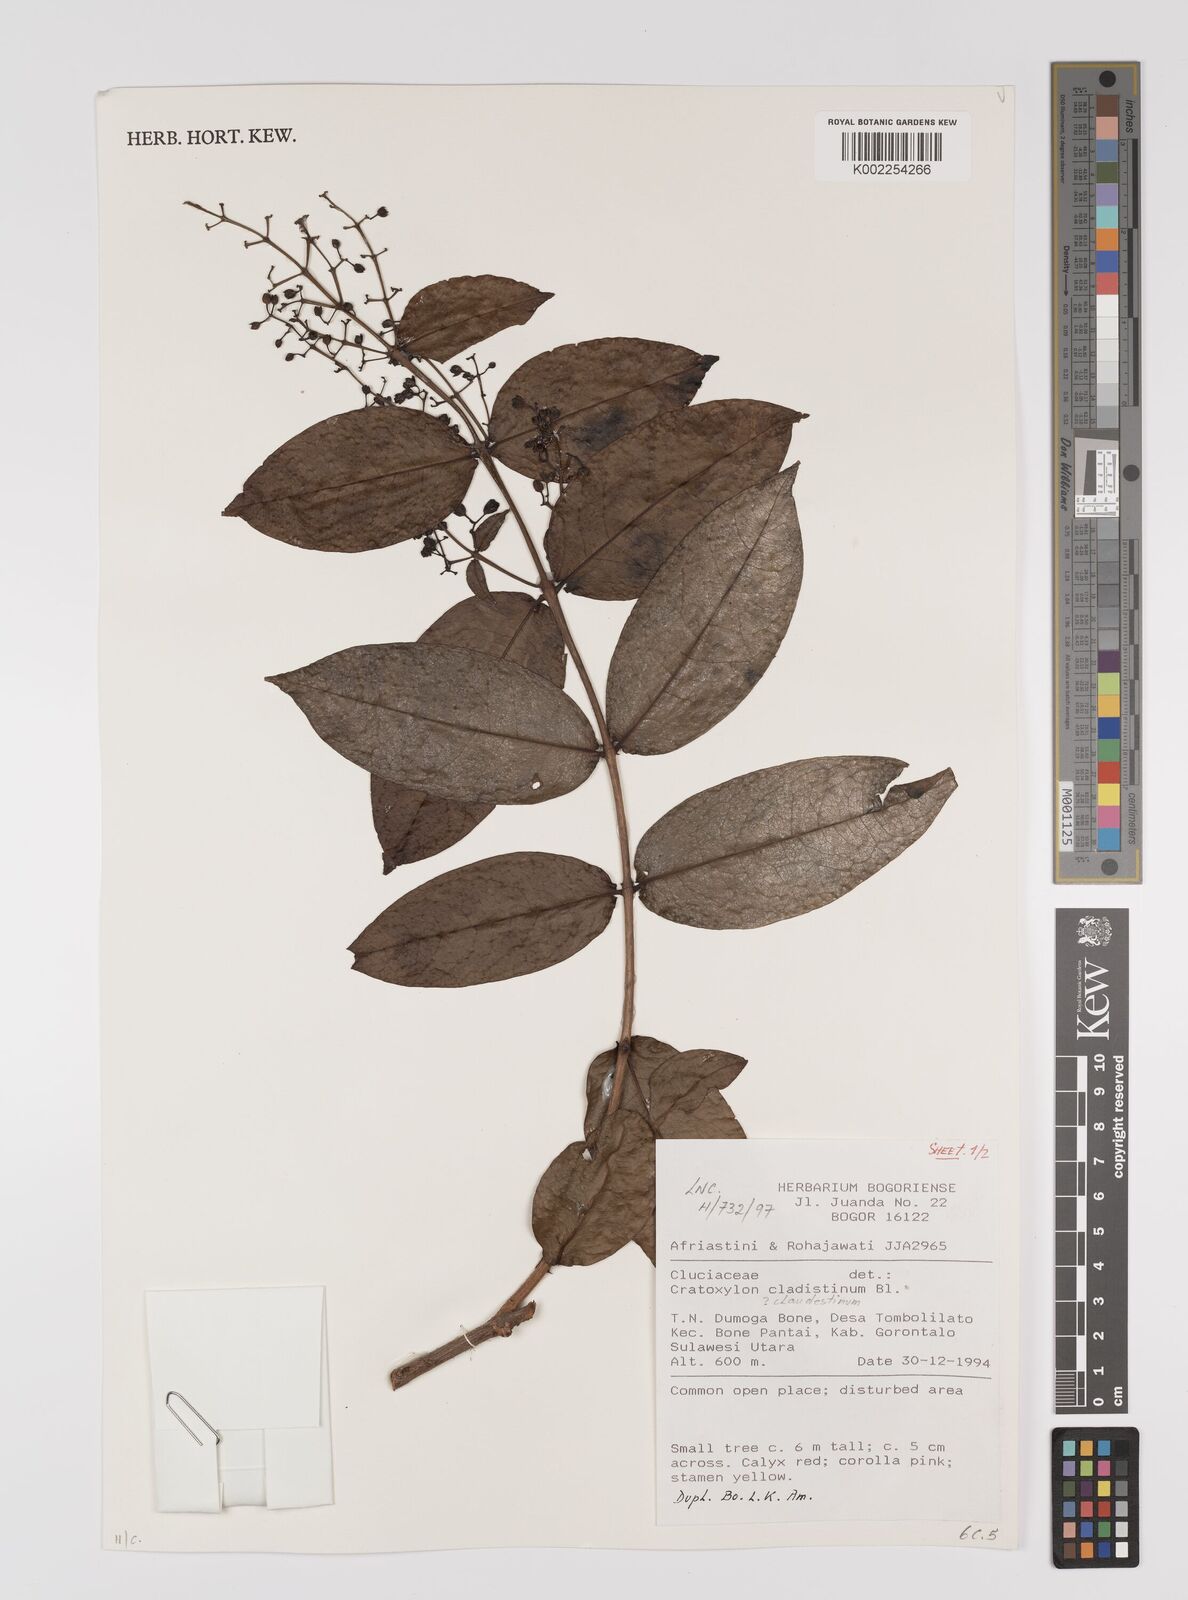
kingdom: Plantae
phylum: Tracheophyta
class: Magnoliopsida
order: Malpighiales
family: Hypericaceae
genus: Cratoxylum
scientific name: Cratoxylum sumatranum
